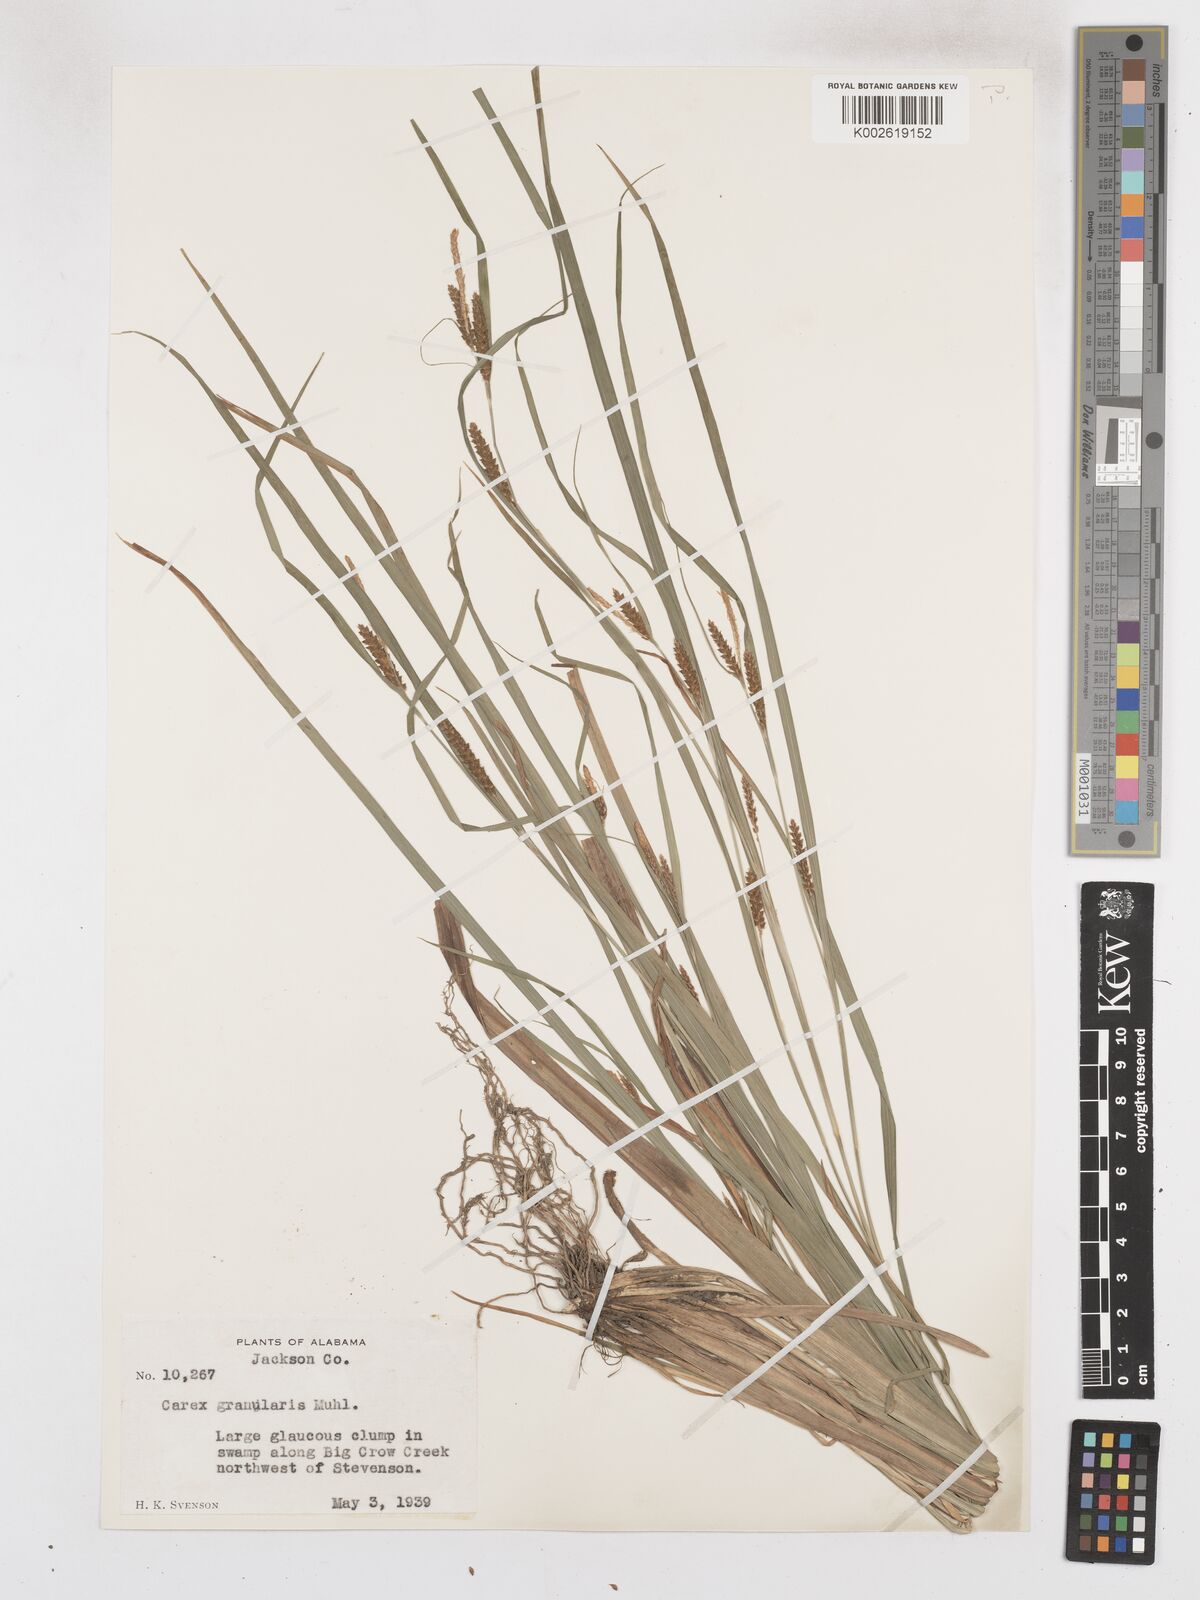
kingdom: Plantae
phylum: Tracheophyta
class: Liliopsida
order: Poales
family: Cyperaceae
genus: Carex
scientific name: Carex granularis
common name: Granular sedge
